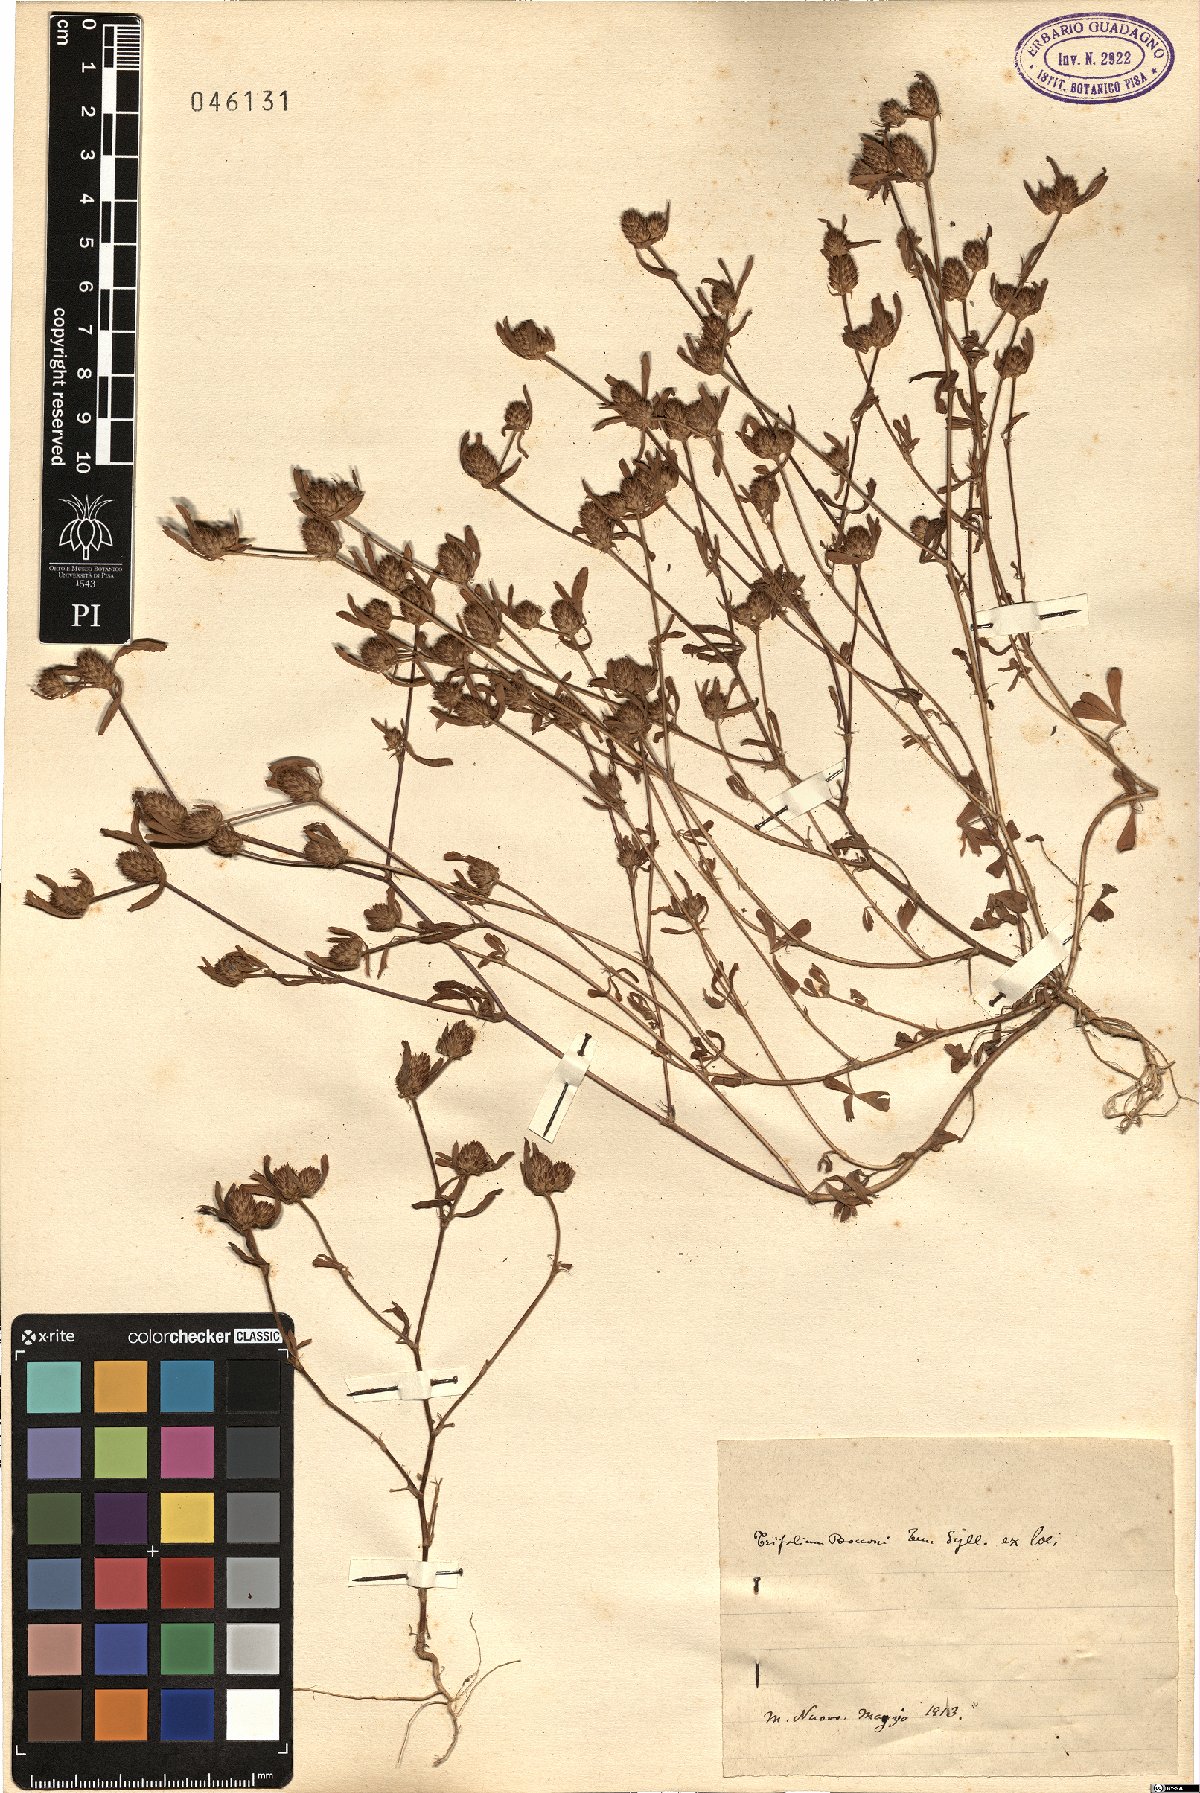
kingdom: Plantae
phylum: Tracheophyta
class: Magnoliopsida
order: Fabales
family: Fabaceae
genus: Trifolium
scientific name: Trifolium bocconei
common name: Twin-headed clover
